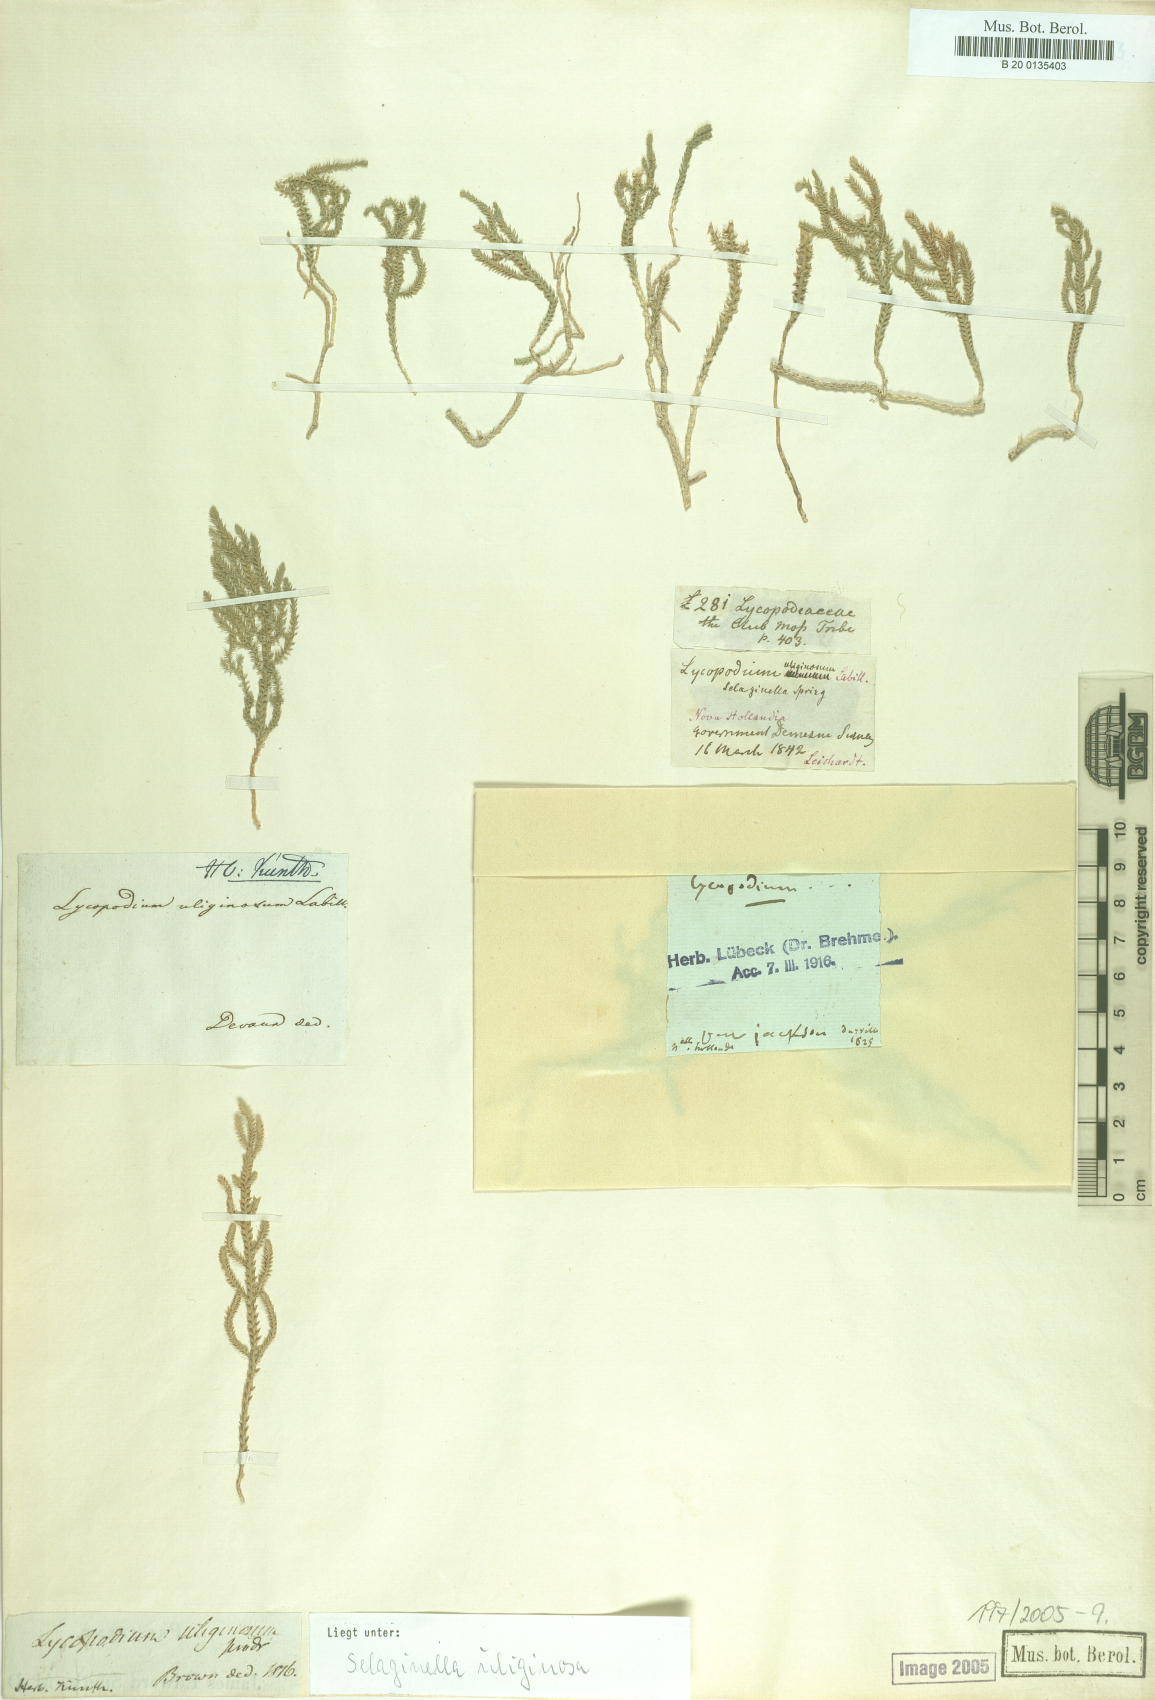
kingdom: Plantae
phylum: Tracheophyta
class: Lycopodiopsida
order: Selaginellales
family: Selaginellaceae
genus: Selaginella
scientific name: Selaginella uliginosa
